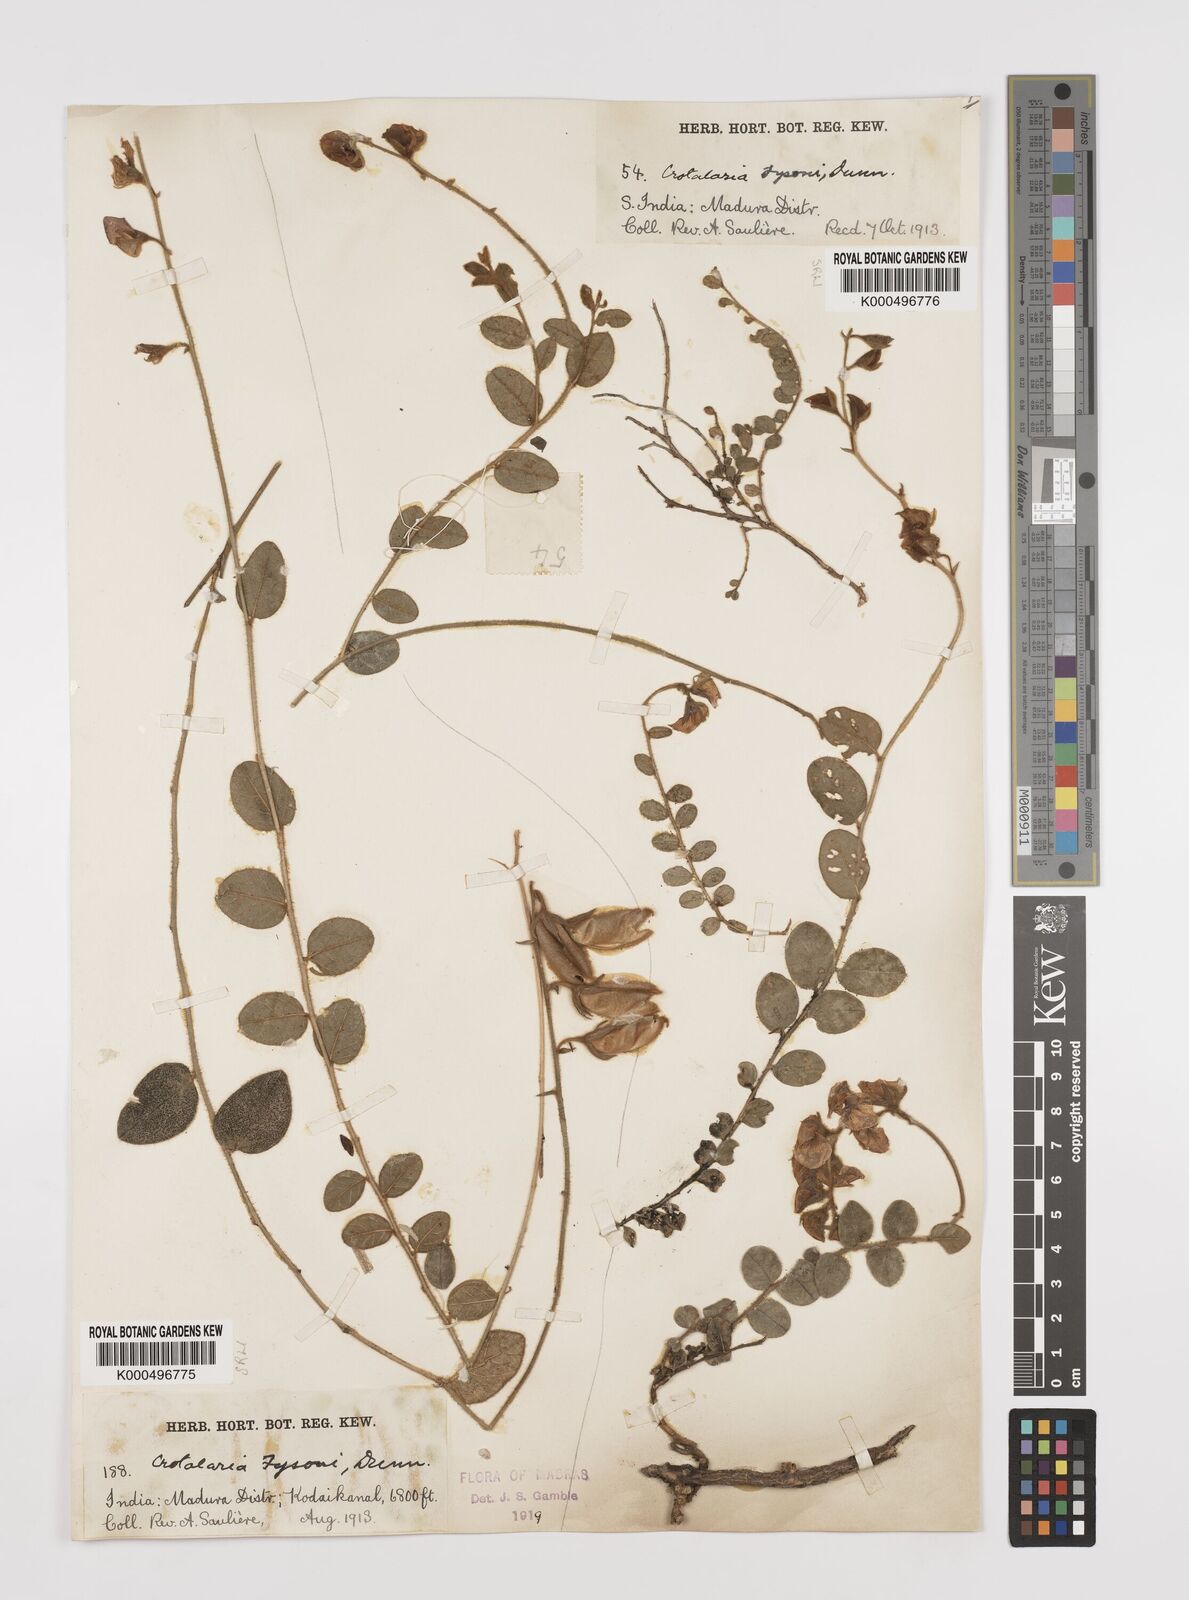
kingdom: Plantae
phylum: Tracheophyta
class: Magnoliopsida
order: Fabales
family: Fabaceae
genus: Crotalaria
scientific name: Crotalaria fysonii
